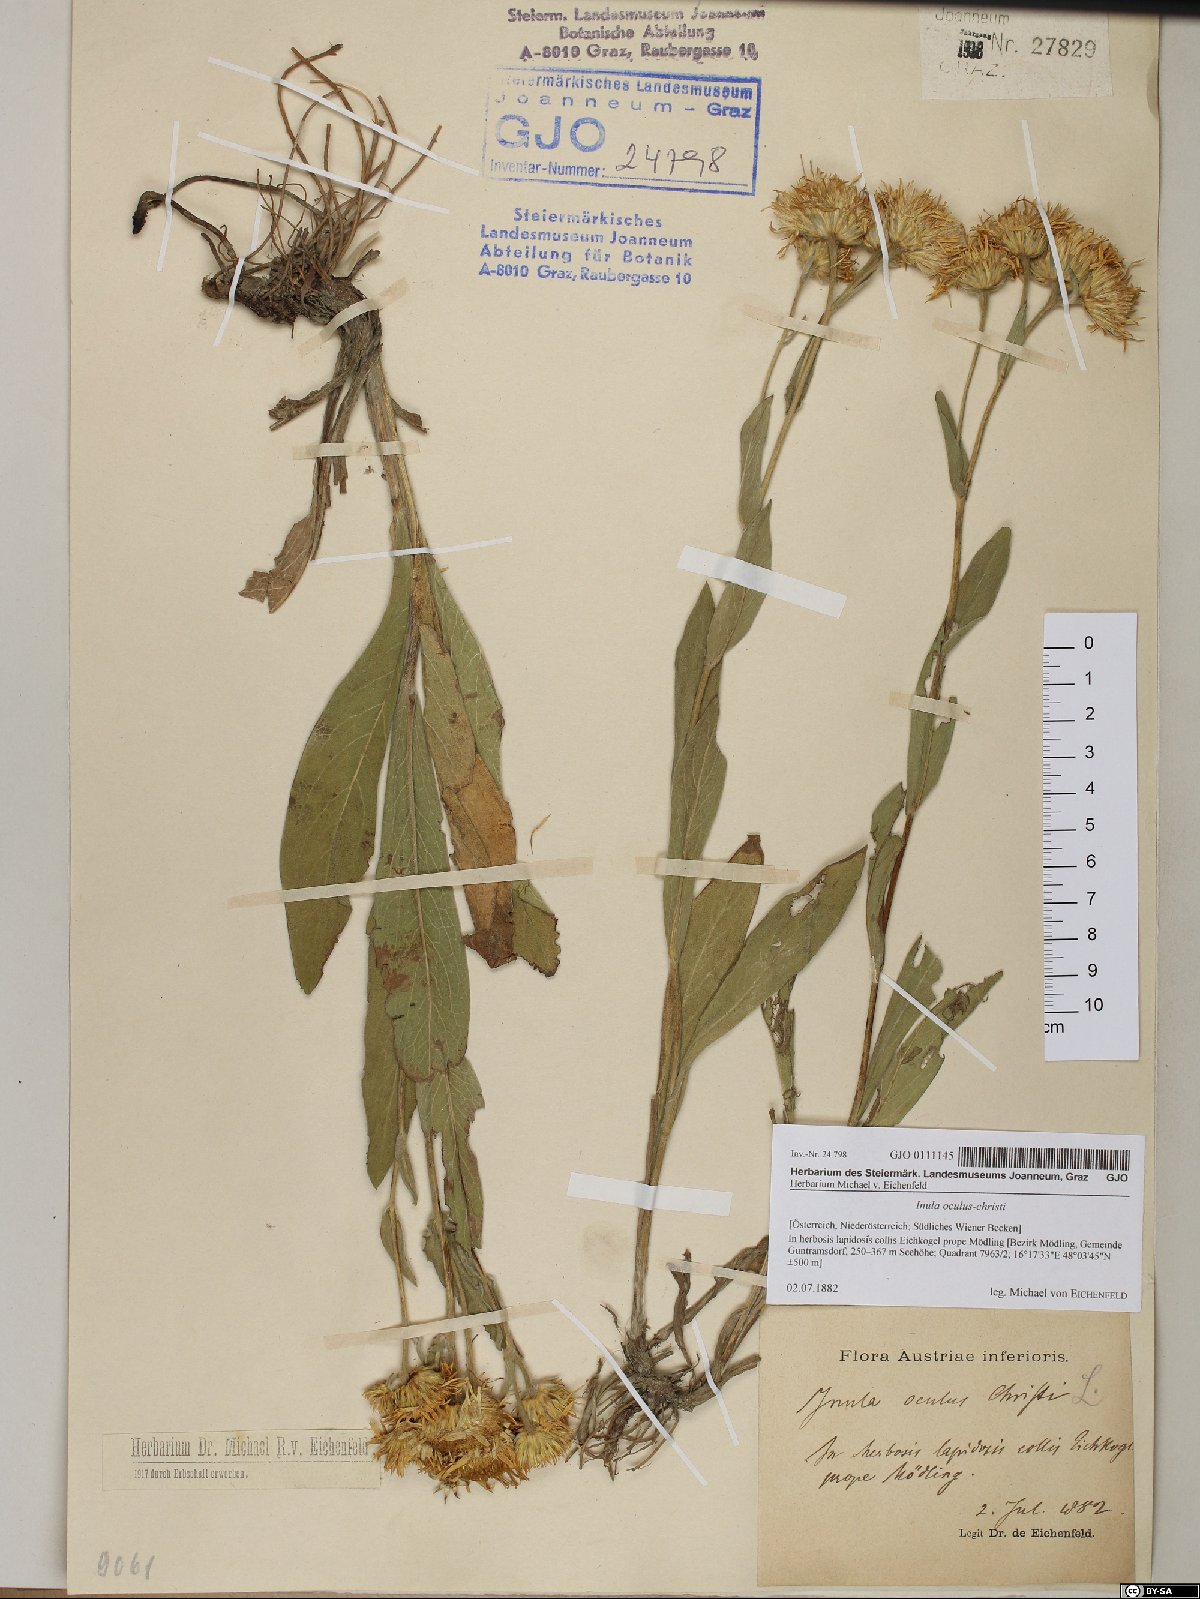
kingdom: Plantae
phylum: Tracheophyta
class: Magnoliopsida
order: Asterales
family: Asteraceae
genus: Pentanema
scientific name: Pentanema oculus-christi
